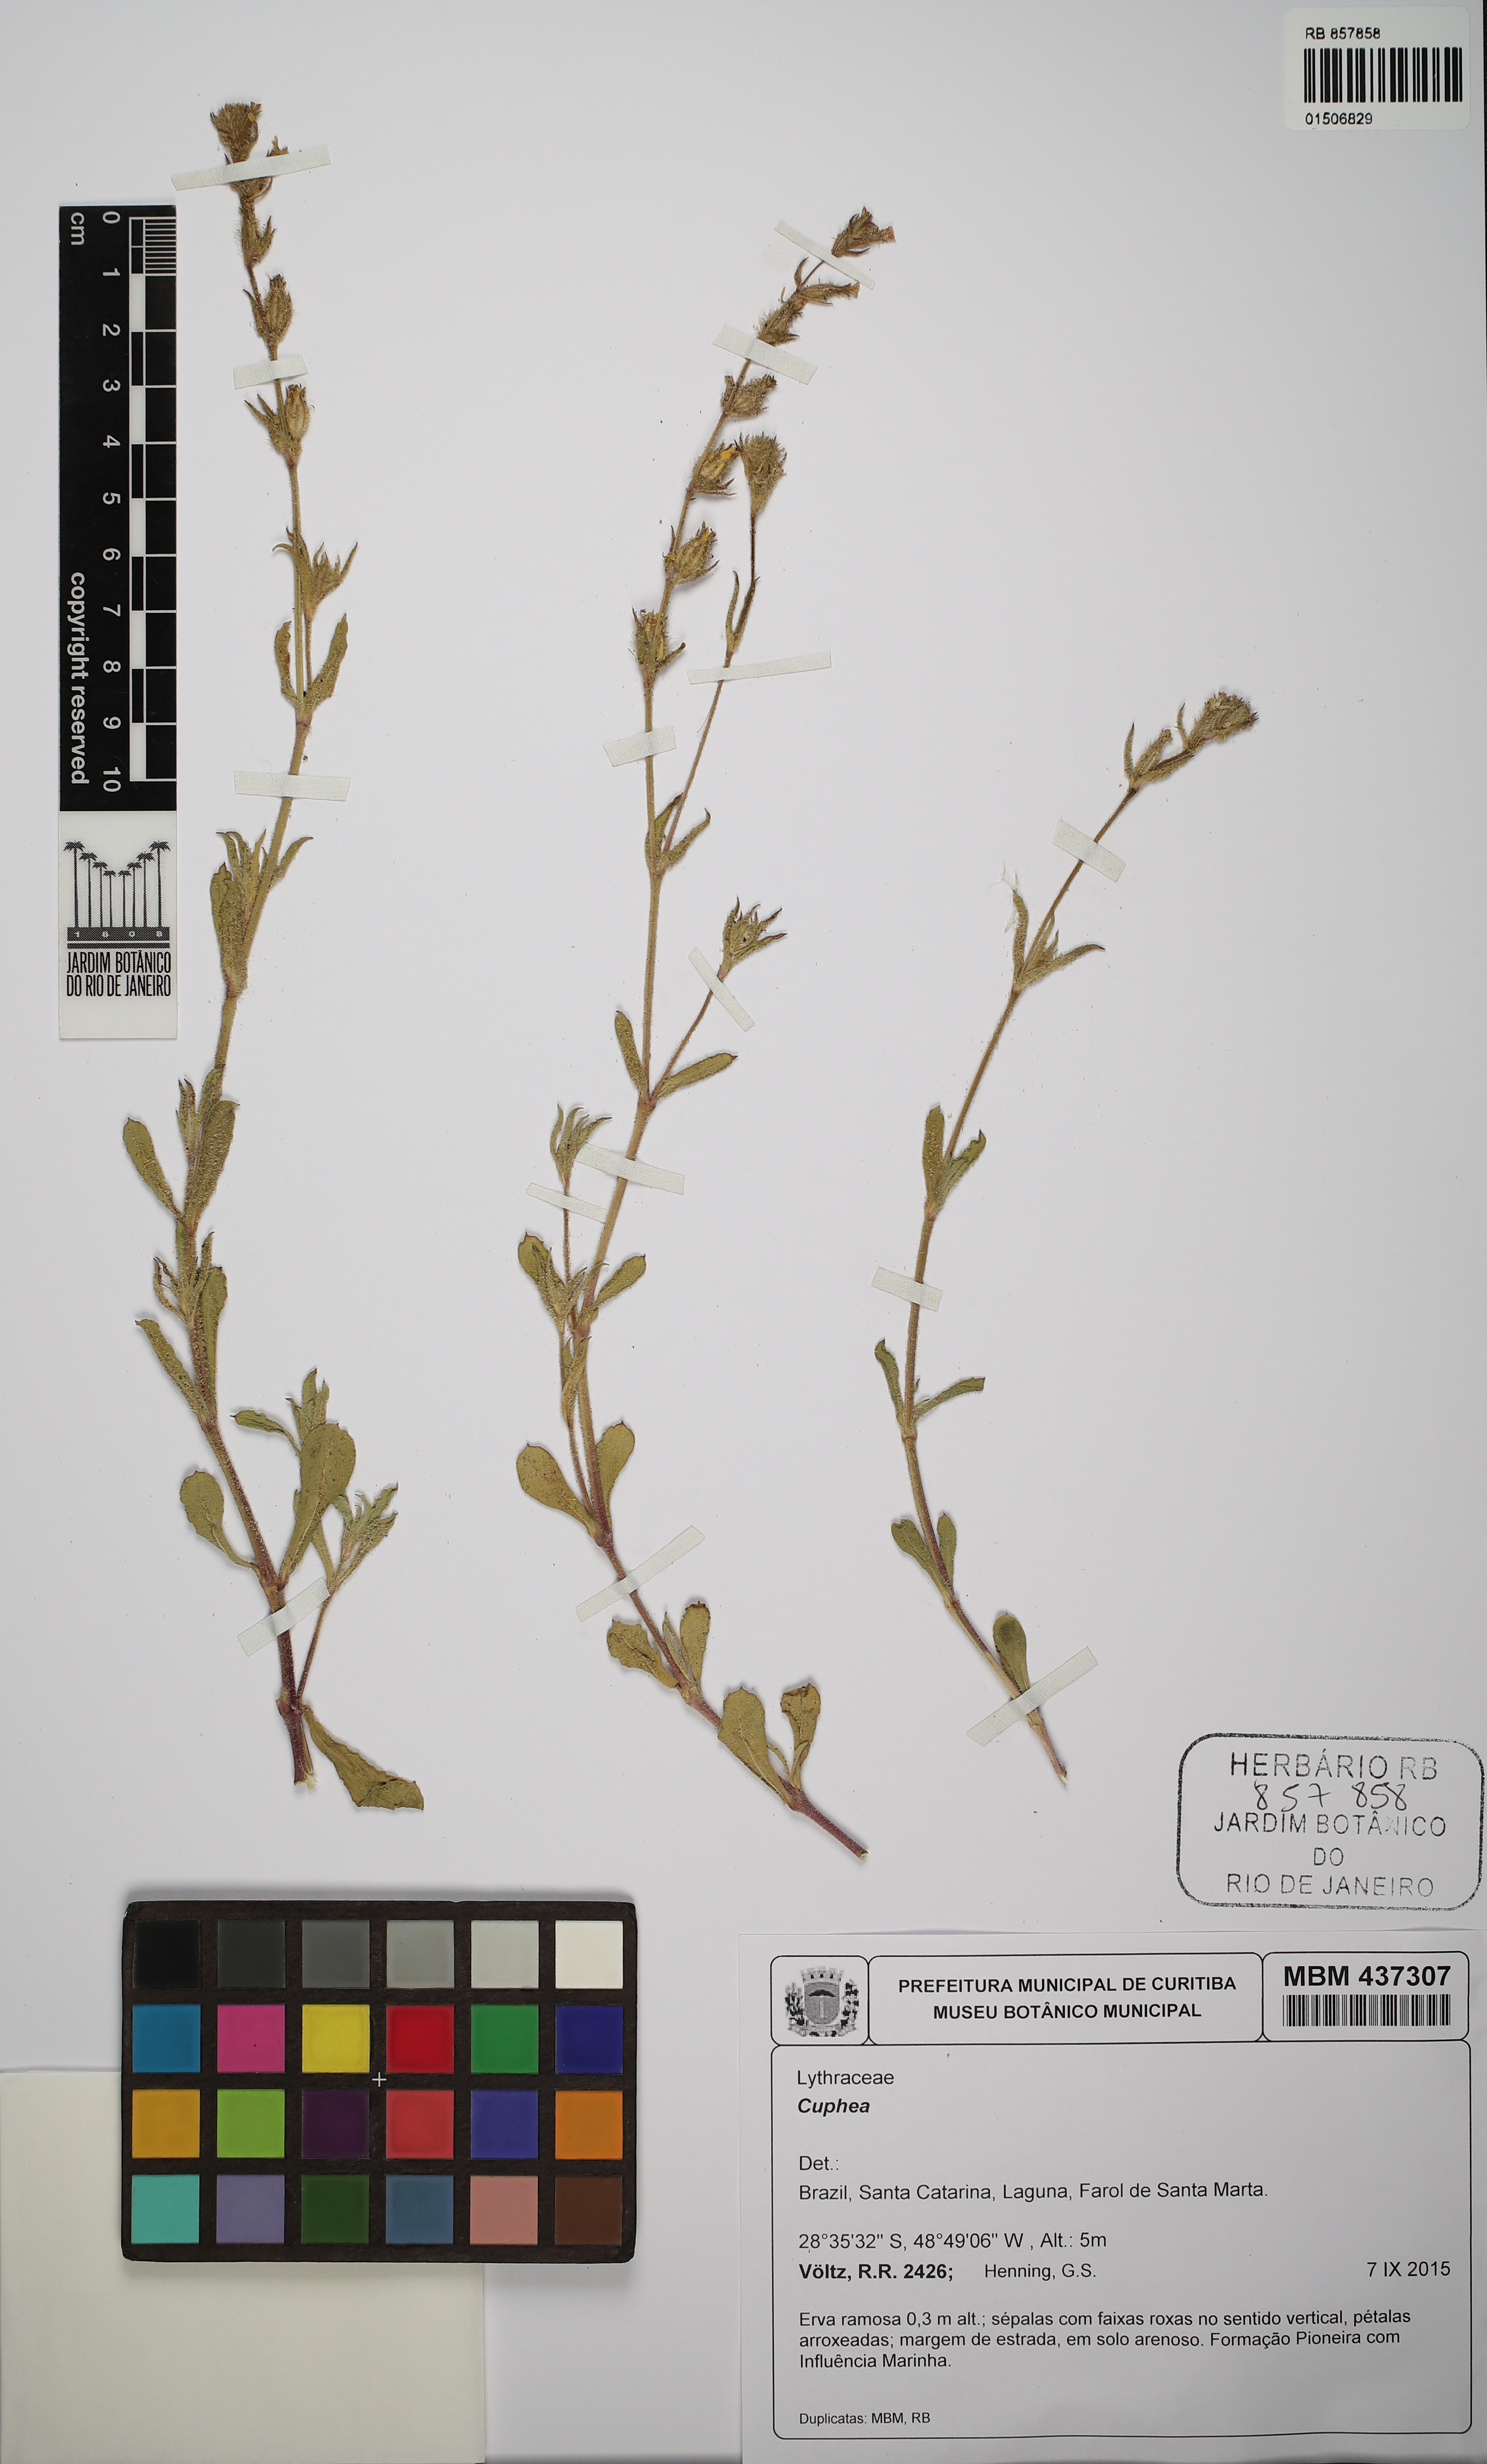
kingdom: Plantae
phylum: Tracheophyta
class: Magnoliopsida
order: Myrtales
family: Lythraceae
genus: Cuphea
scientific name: Cuphea
